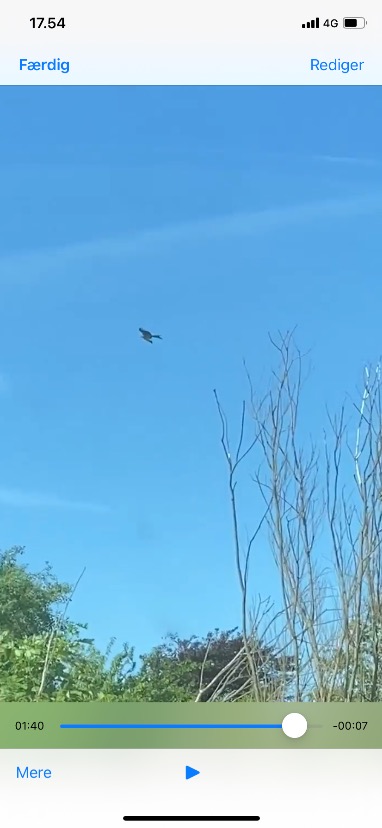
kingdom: Animalia
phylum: Chordata
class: Aves
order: Accipitriformes
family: Accipitridae
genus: Milvus
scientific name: Milvus milvus
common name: Rød glente
